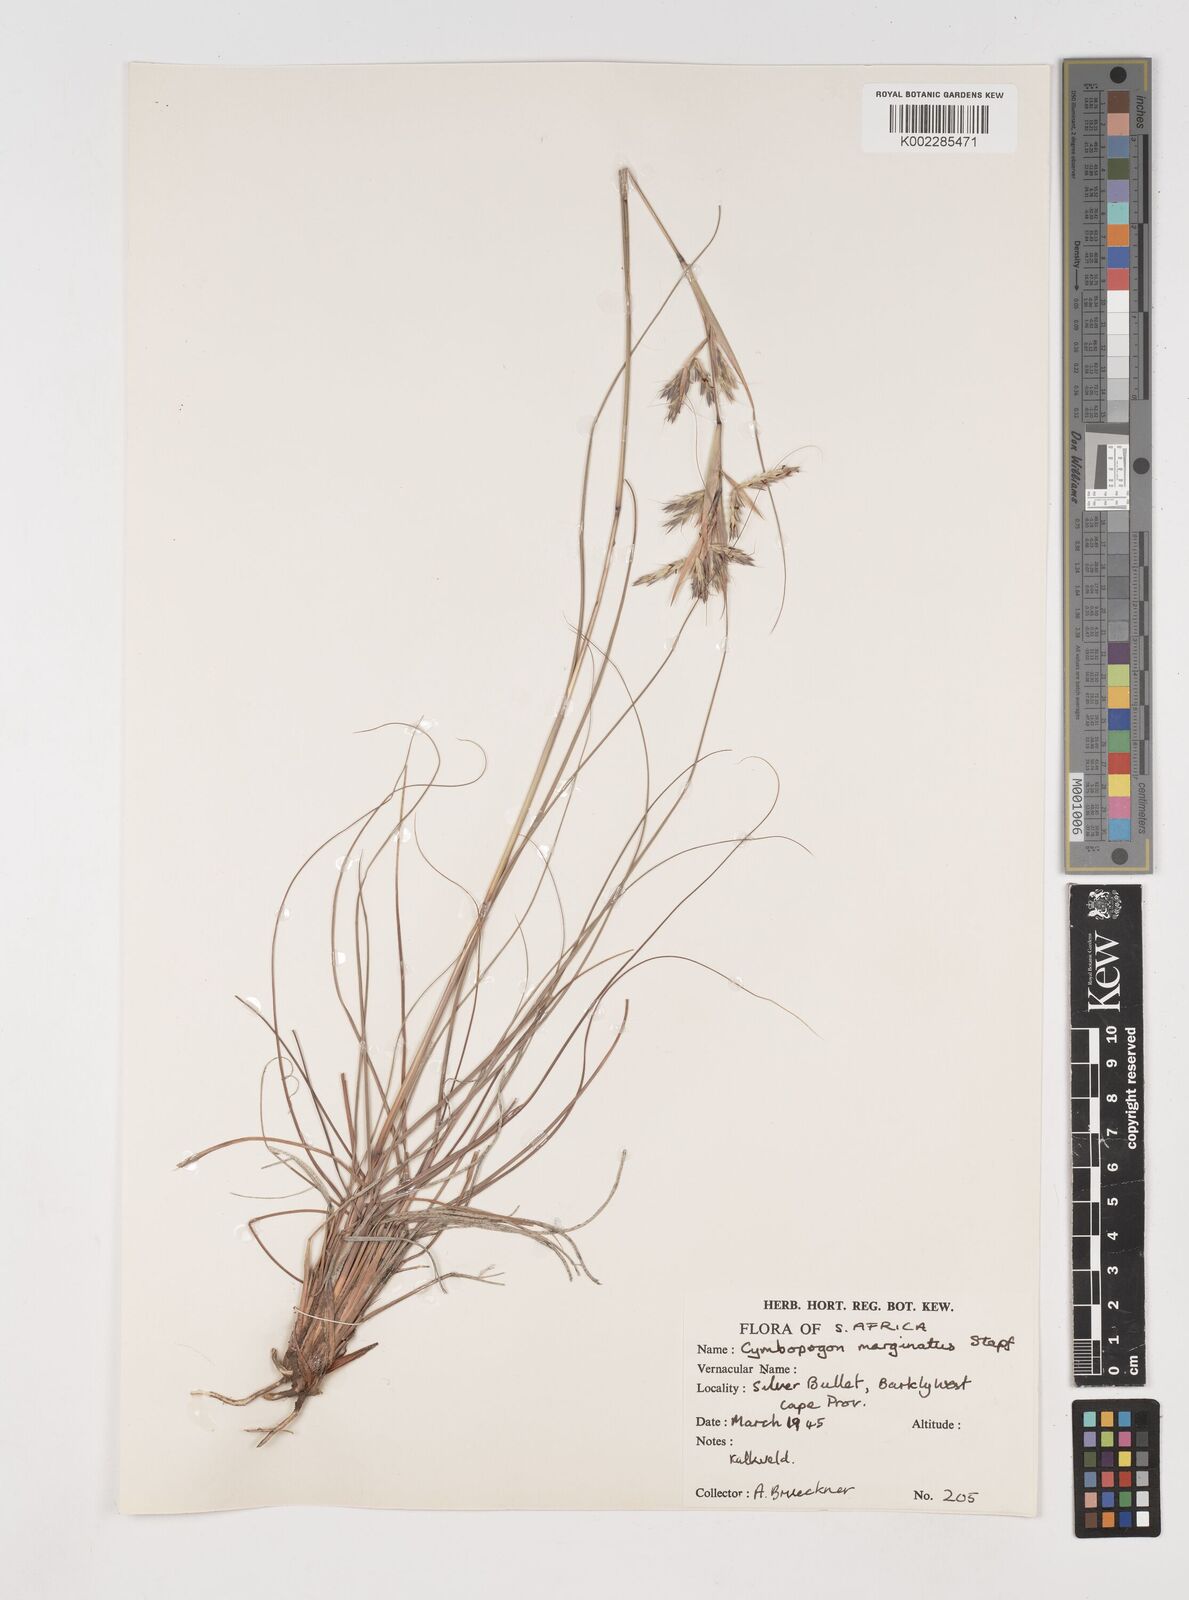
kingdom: Plantae
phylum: Tracheophyta
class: Liliopsida
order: Poales
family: Poaceae
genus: Cymbopogon
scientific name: Cymbopogon pospischilii
